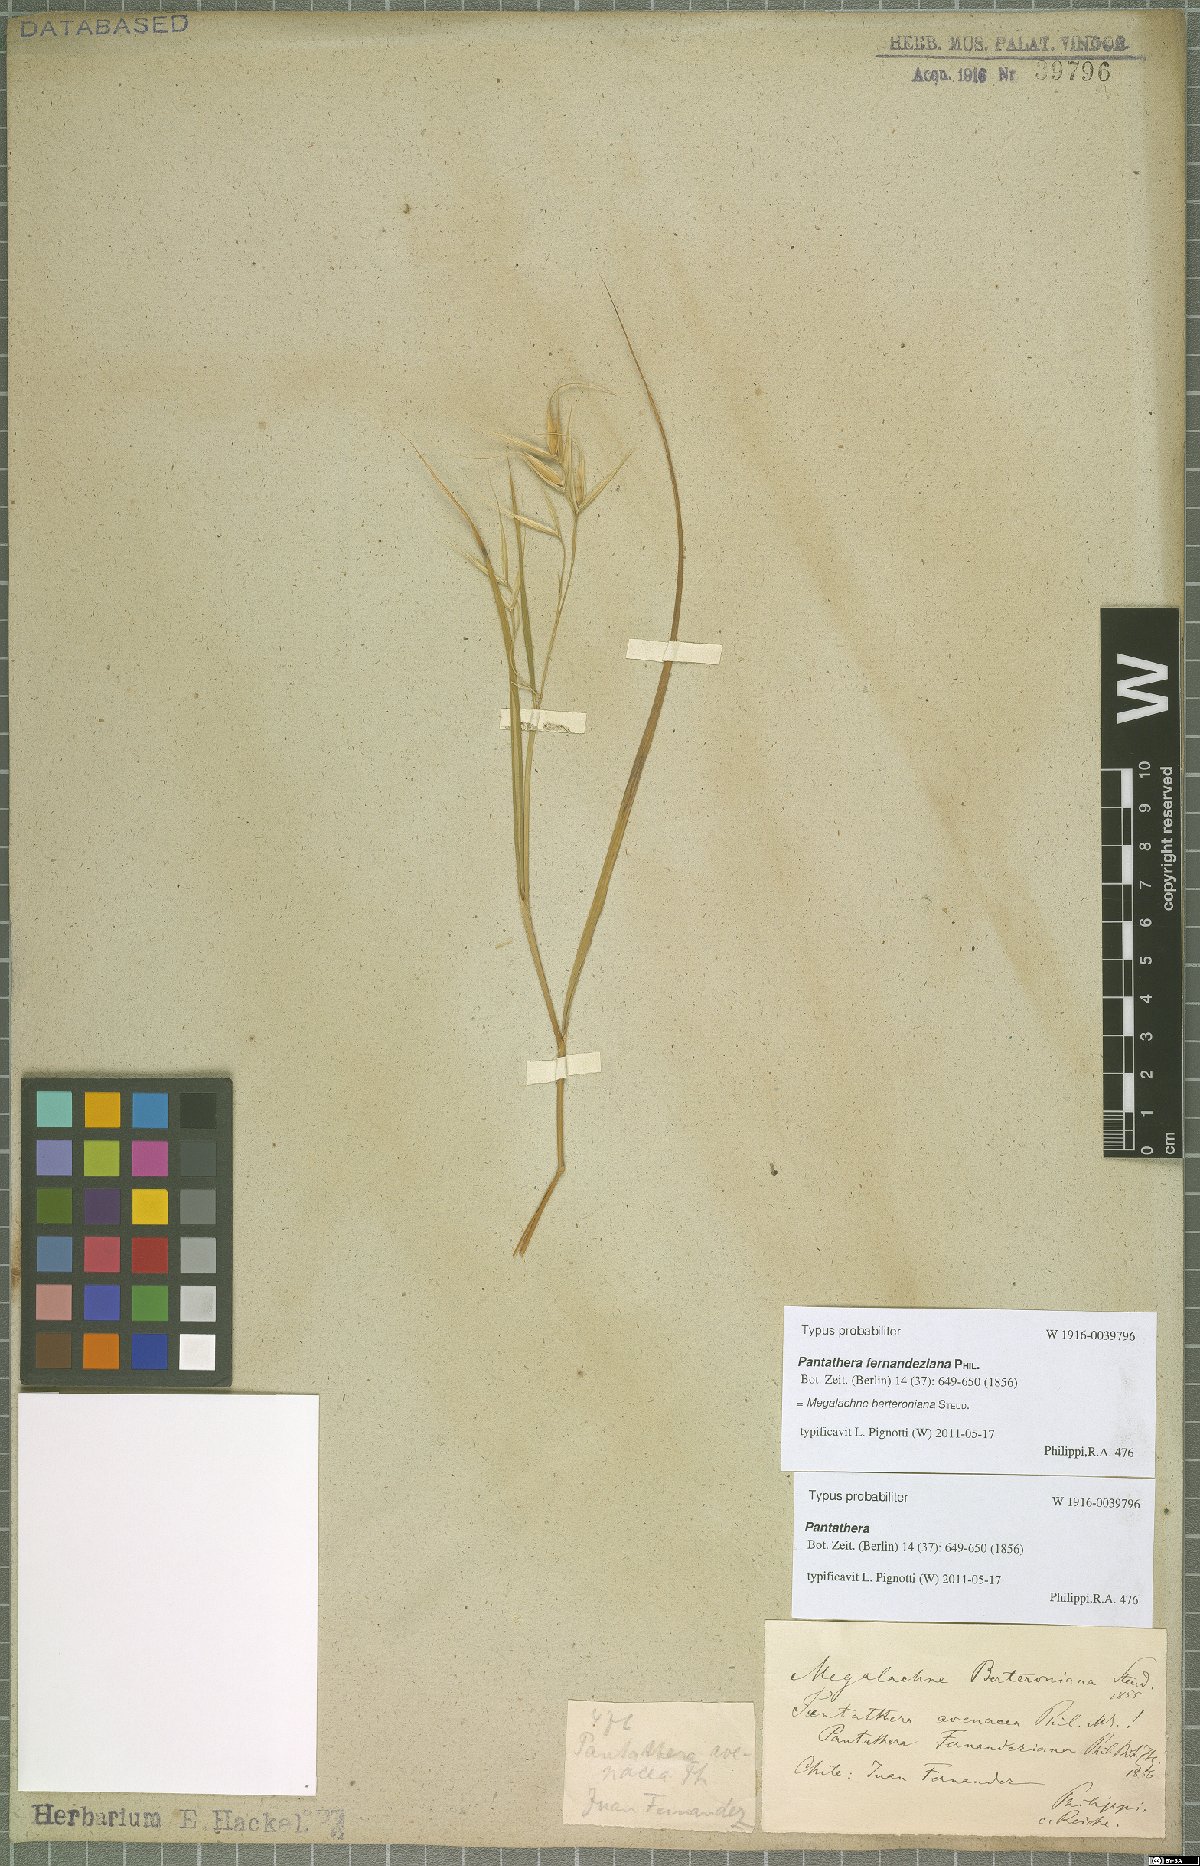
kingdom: Plantae
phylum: Tracheophyta
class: Liliopsida
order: Poales
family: Poaceae
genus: Megalachne
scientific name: Megalachne berteroniana
